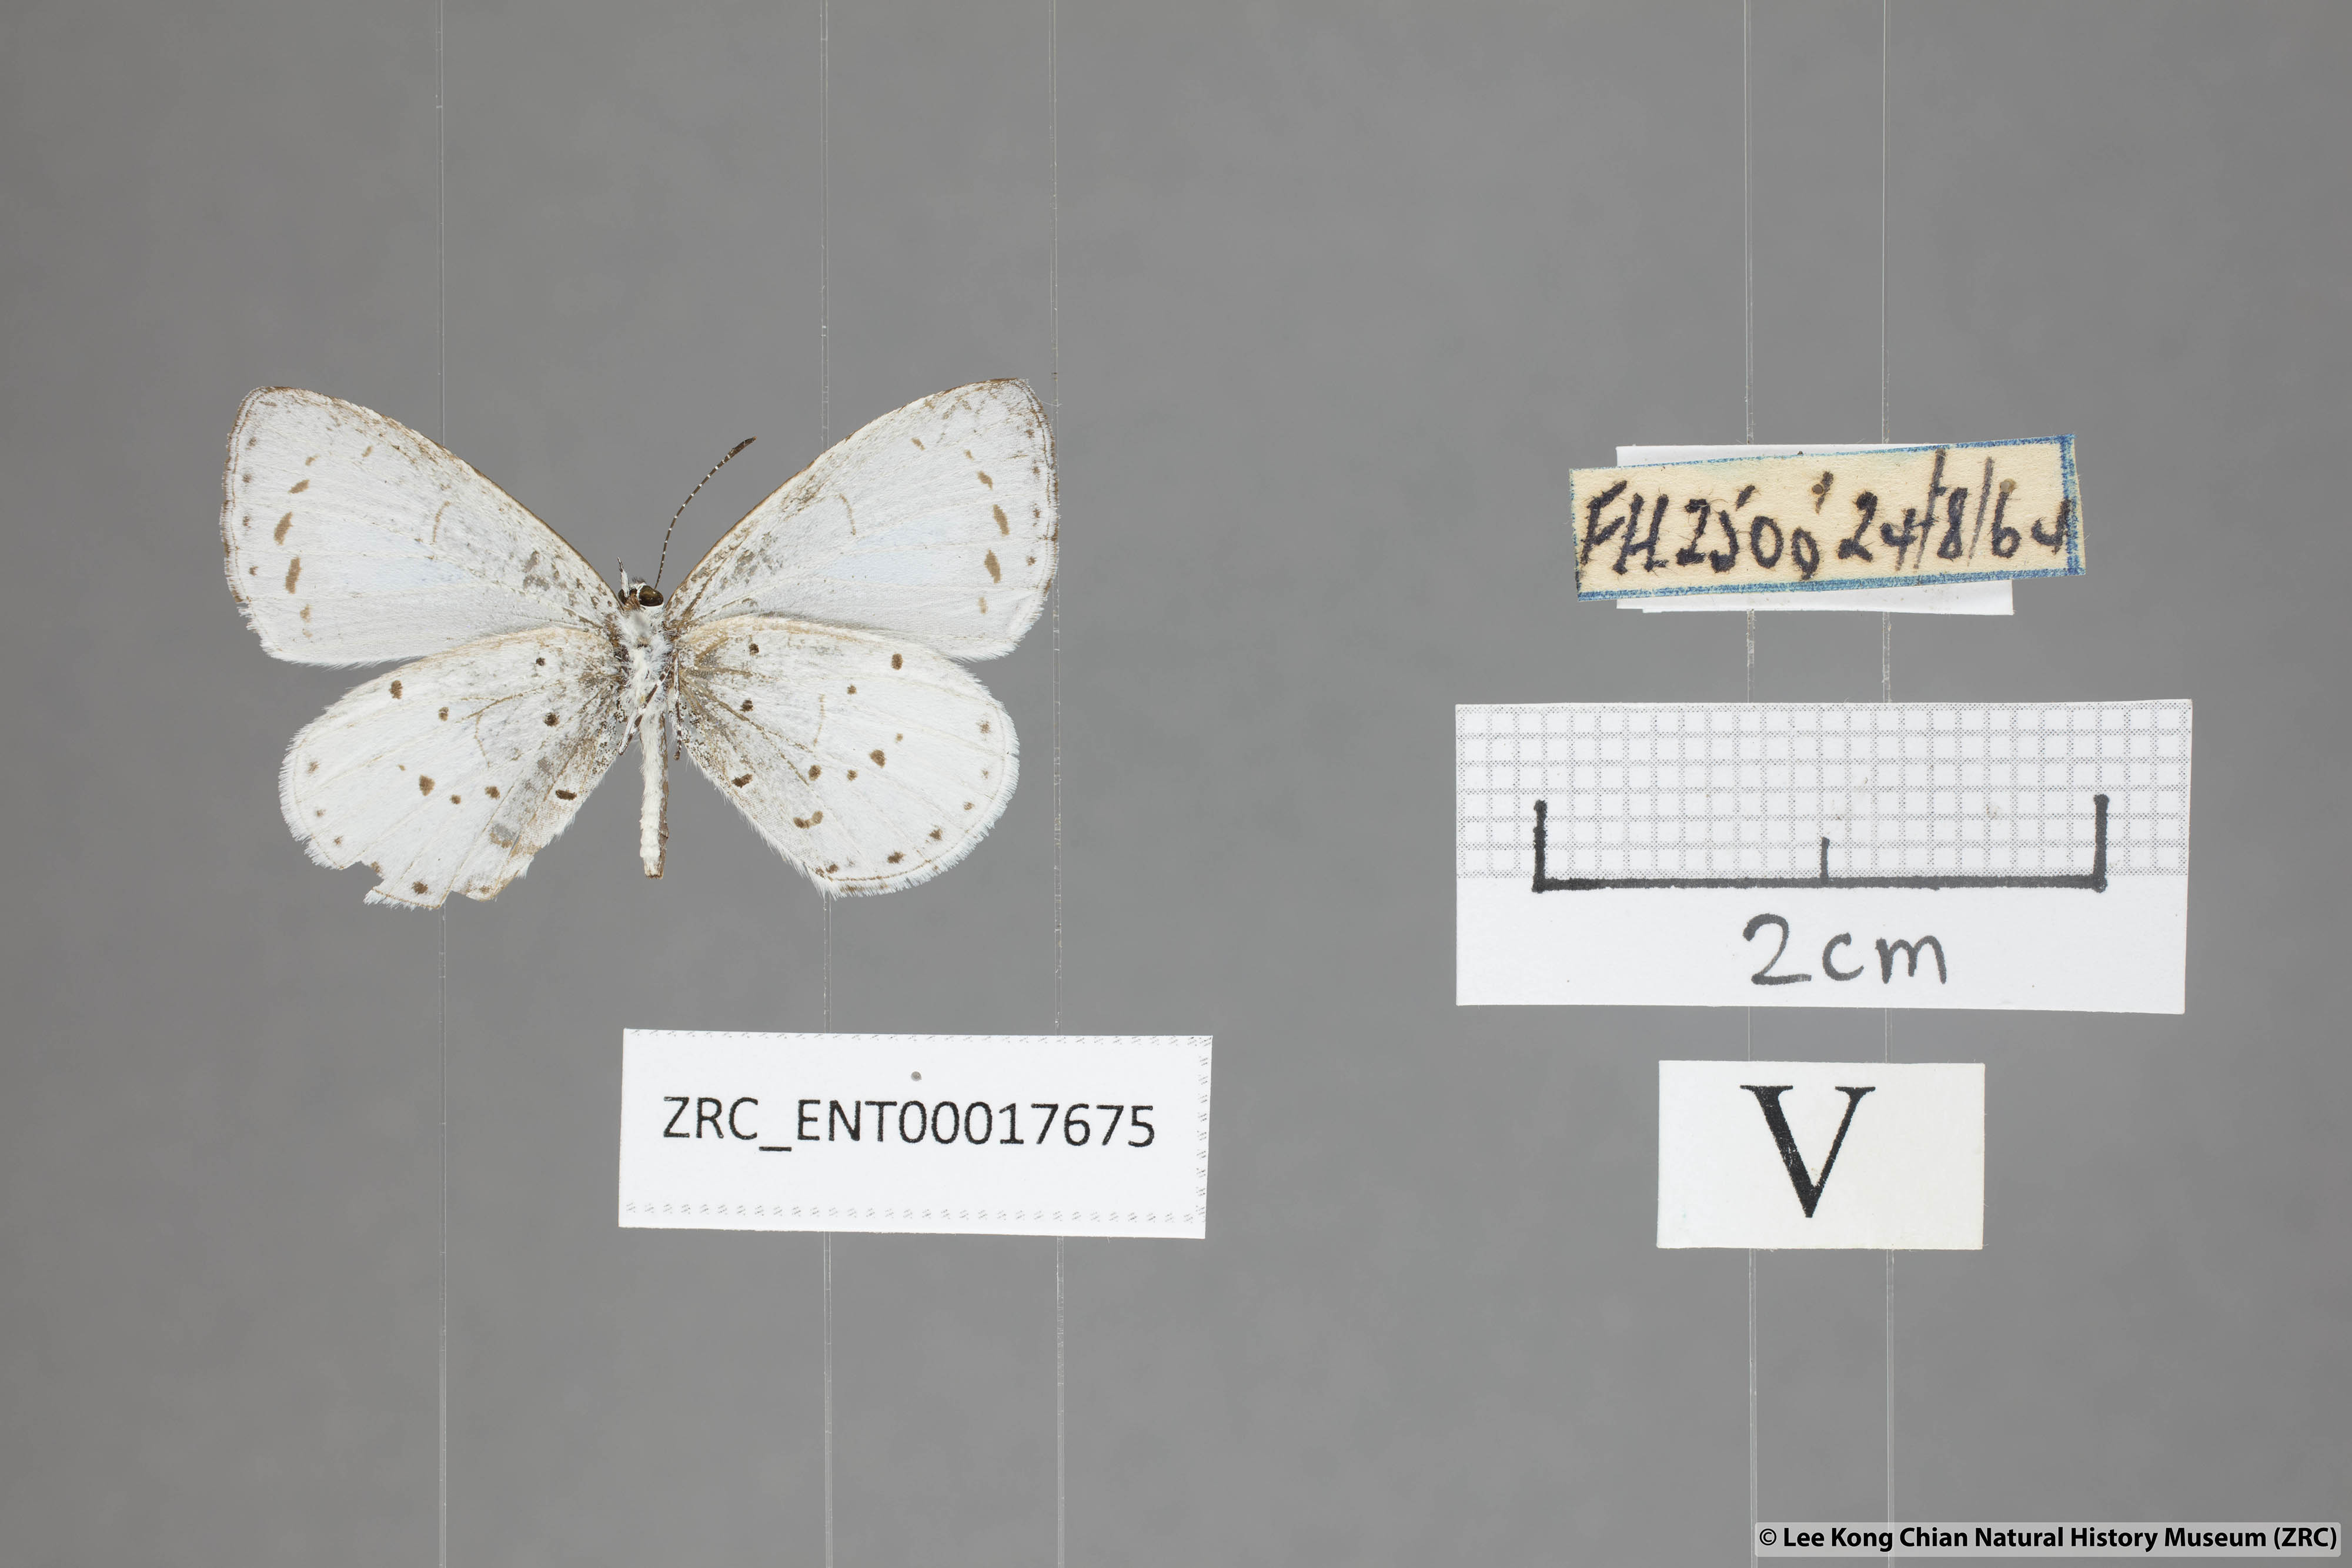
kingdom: Animalia
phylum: Arthropoda
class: Insecta
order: Lepidoptera
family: Lycaenidae
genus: Udara
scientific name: Udara albocaerulea
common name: Albocerulean
